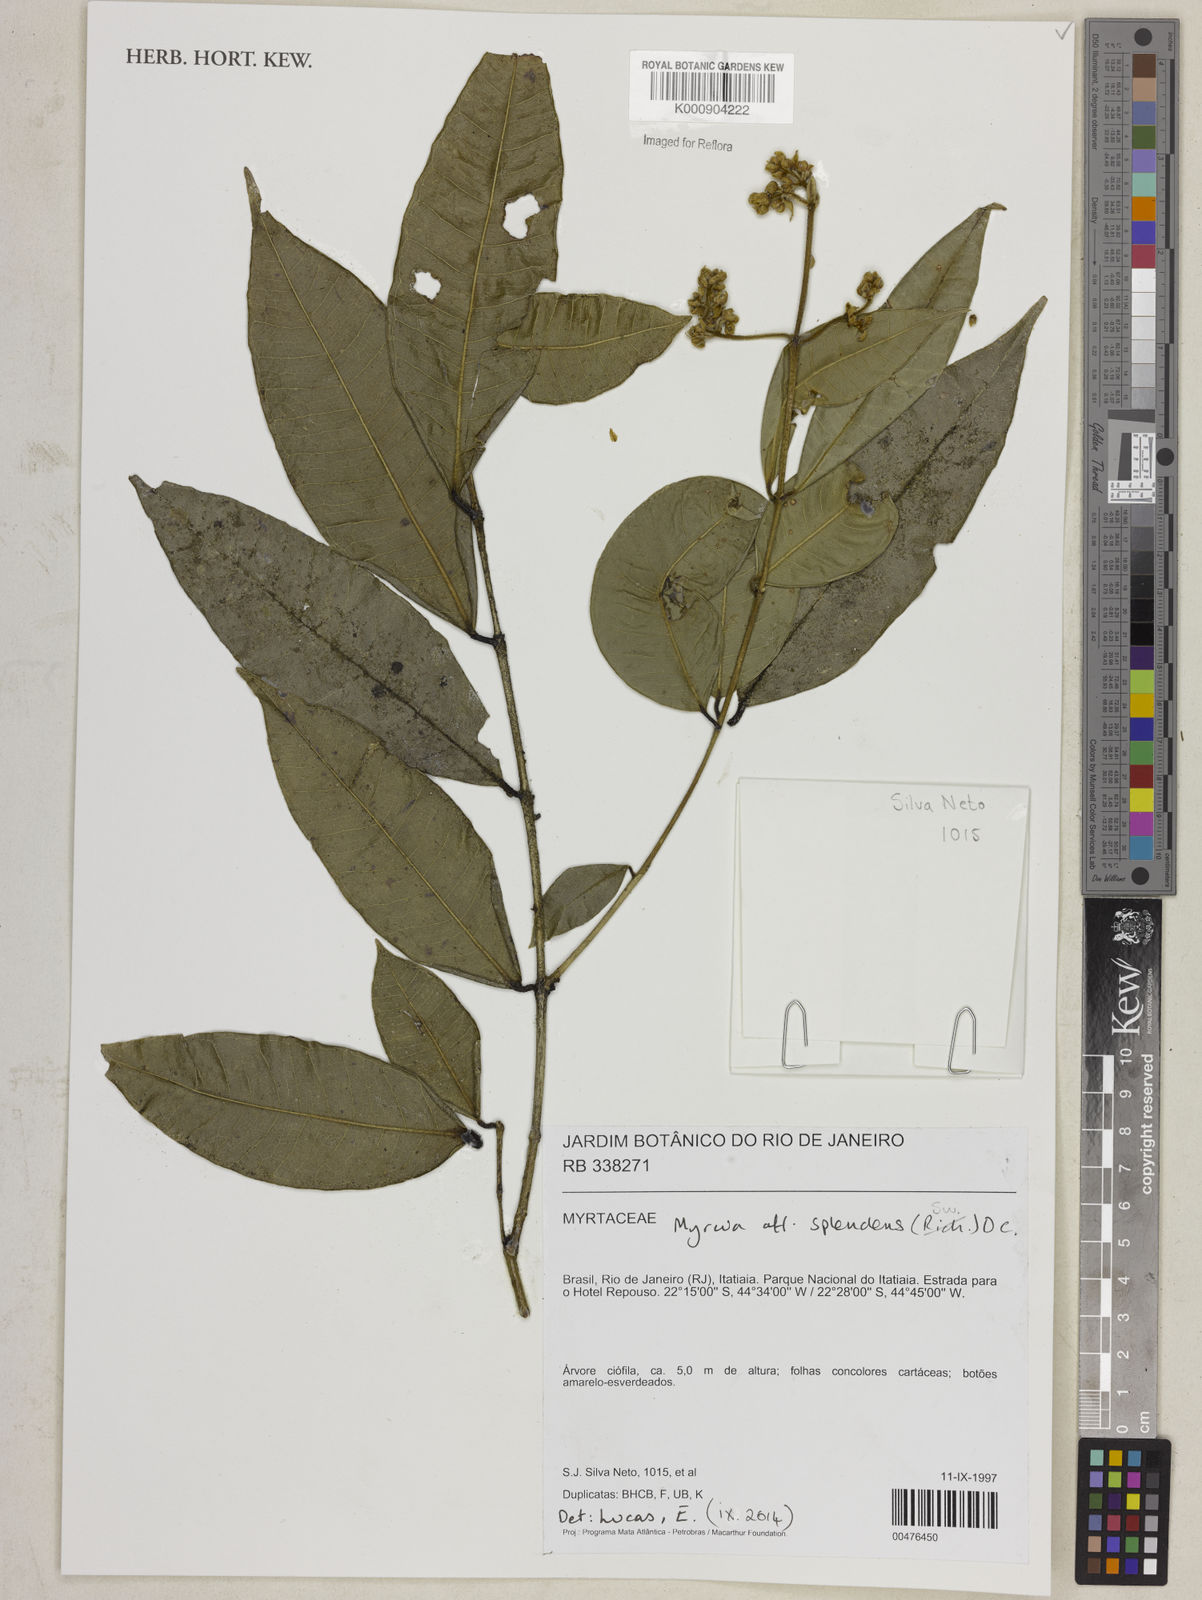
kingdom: Plantae
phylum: Tracheophyta
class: Magnoliopsida
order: Myrtales
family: Myrtaceae
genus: Myrcia
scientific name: Myrcia splendens
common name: Surinam cherry
